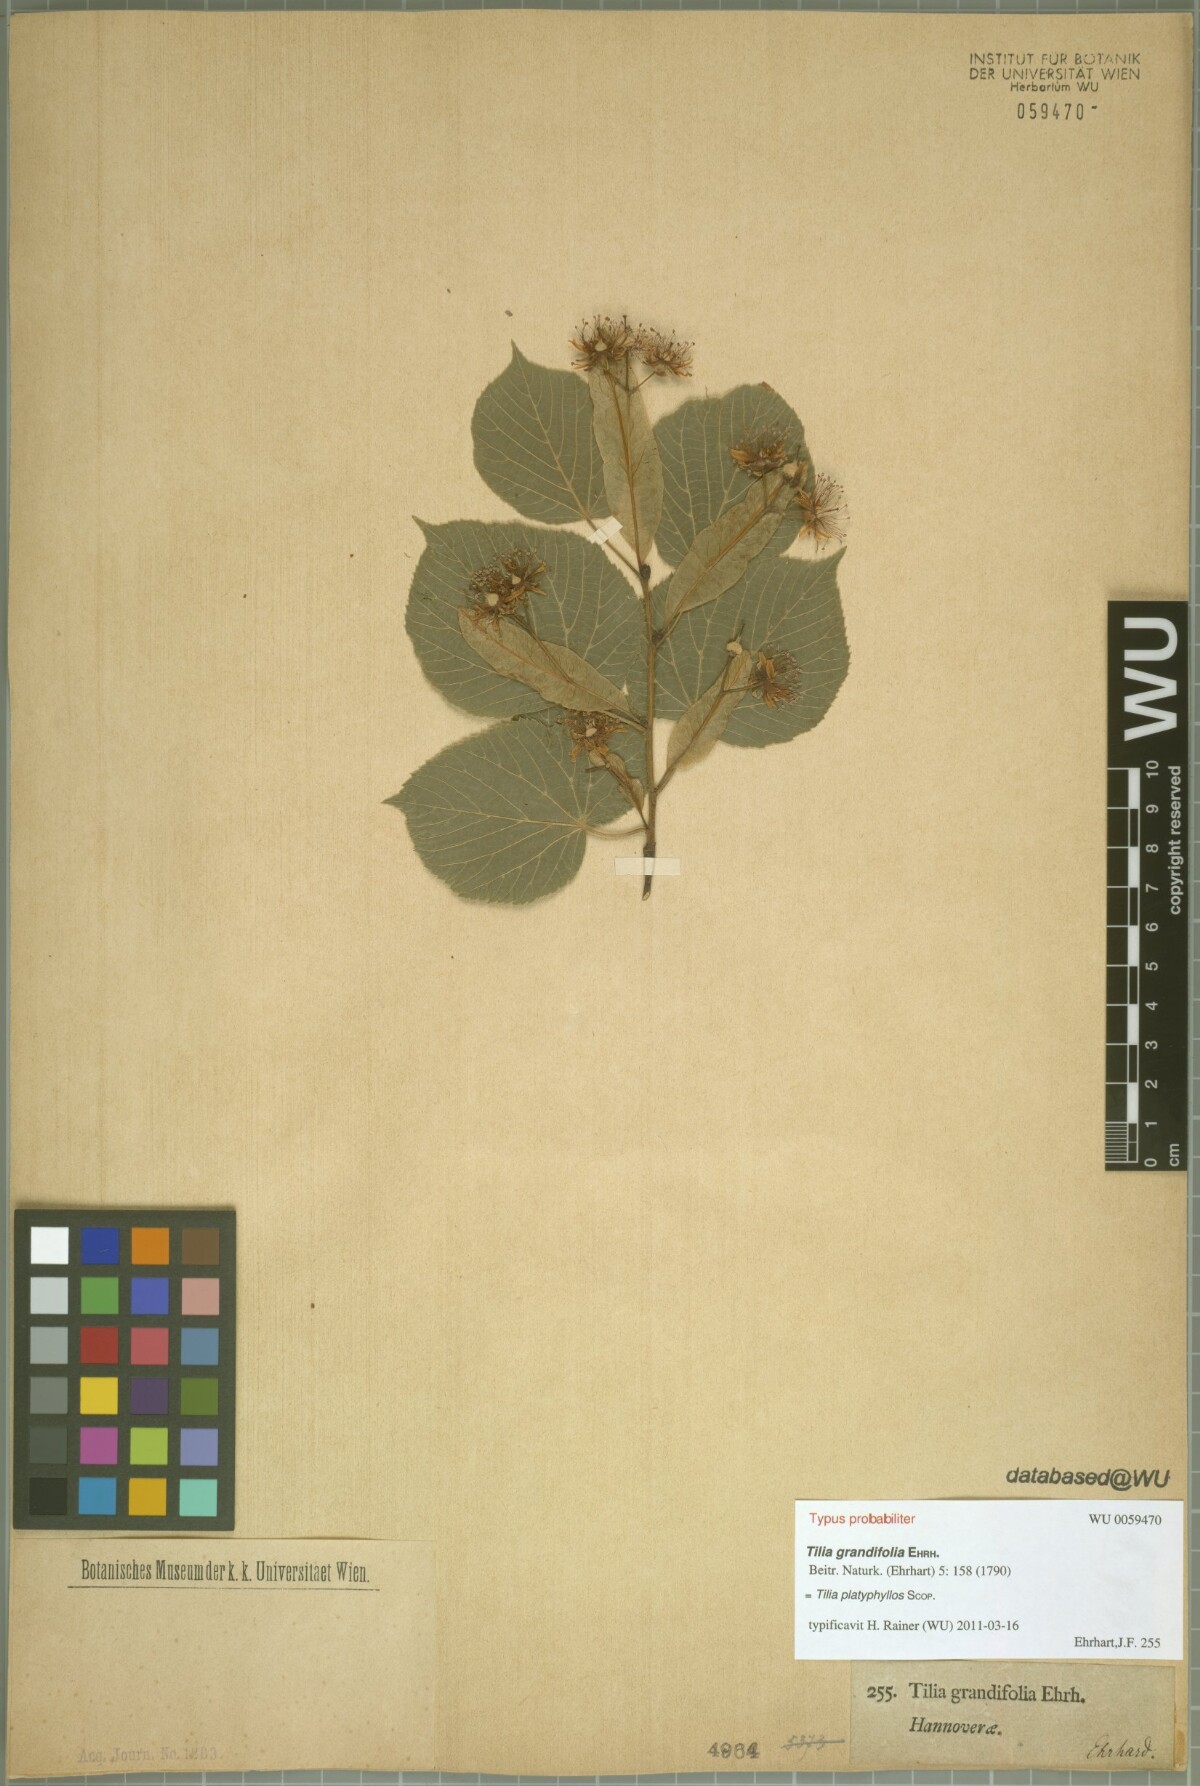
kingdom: Plantae
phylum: Tracheophyta
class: Magnoliopsida
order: Malvales
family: Malvaceae
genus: Tilia
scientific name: Tilia platyphyllos
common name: Large-leaved lime
